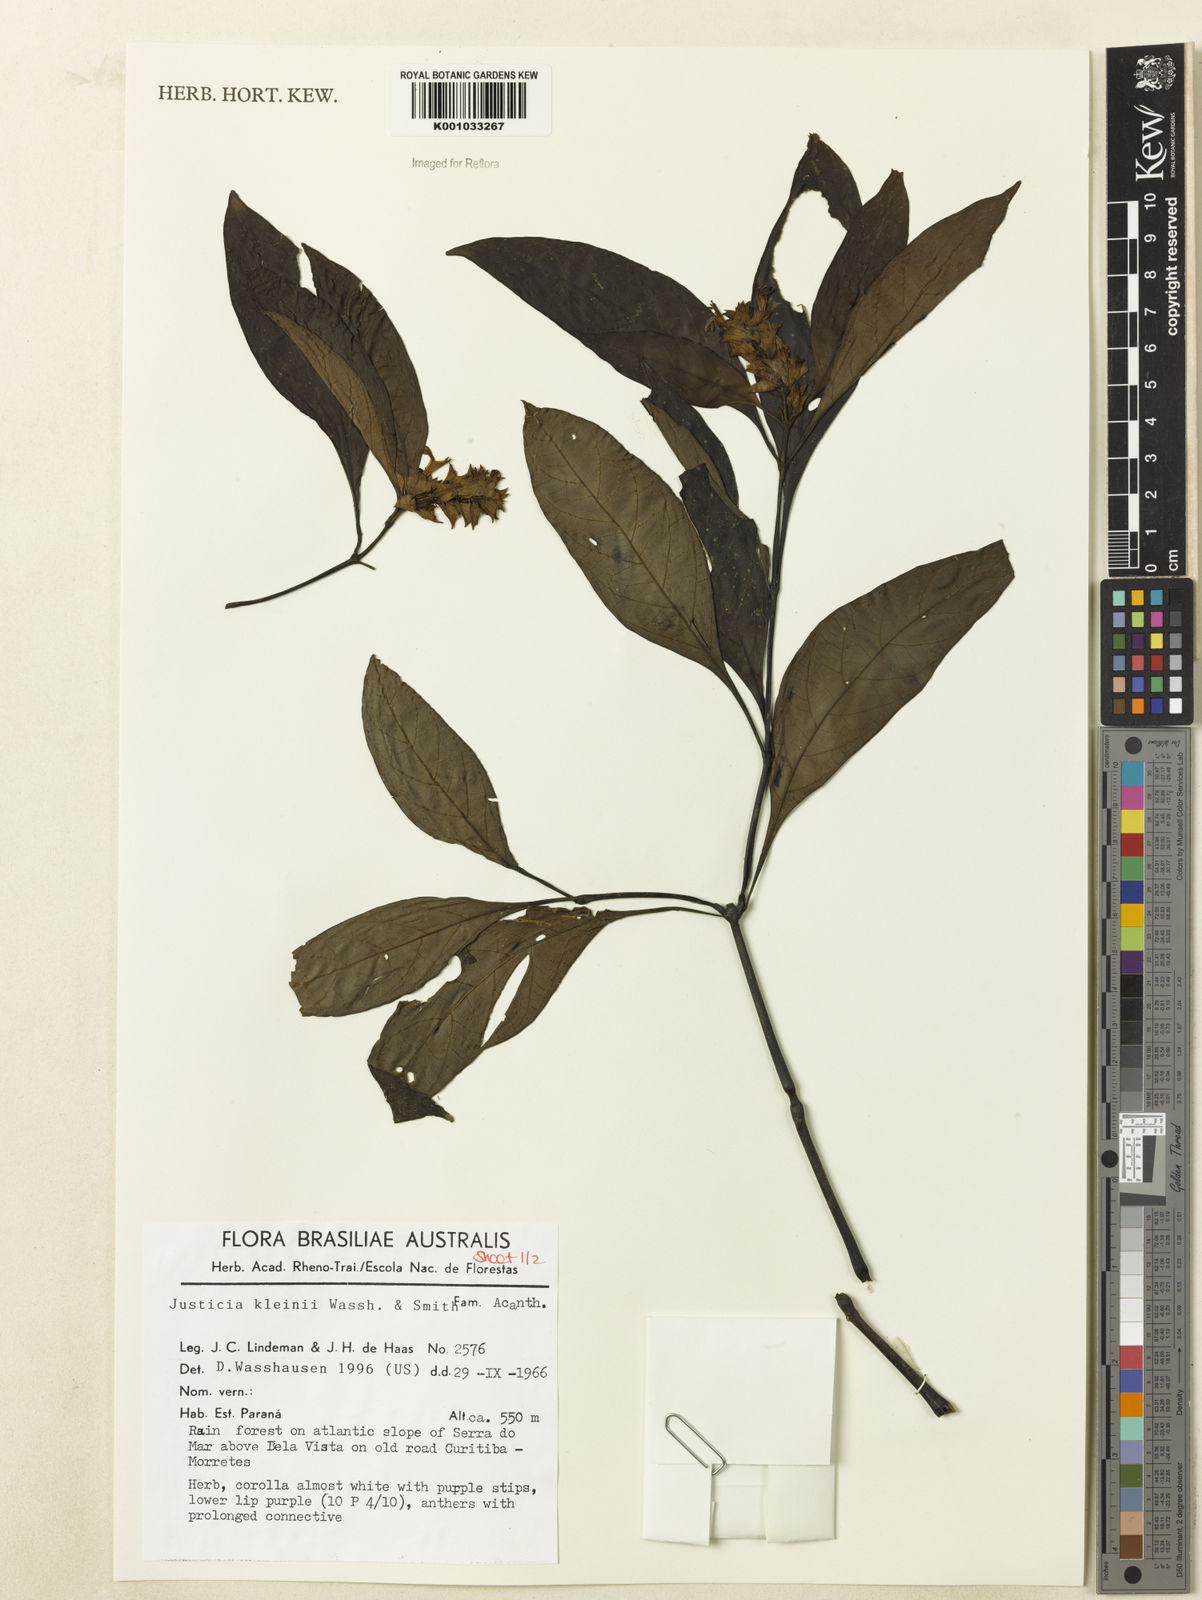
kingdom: Plantae
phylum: Tracheophyta
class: Magnoliopsida
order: Lamiales
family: Acanthaceae
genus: Justicia
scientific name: Justicia kleinii
